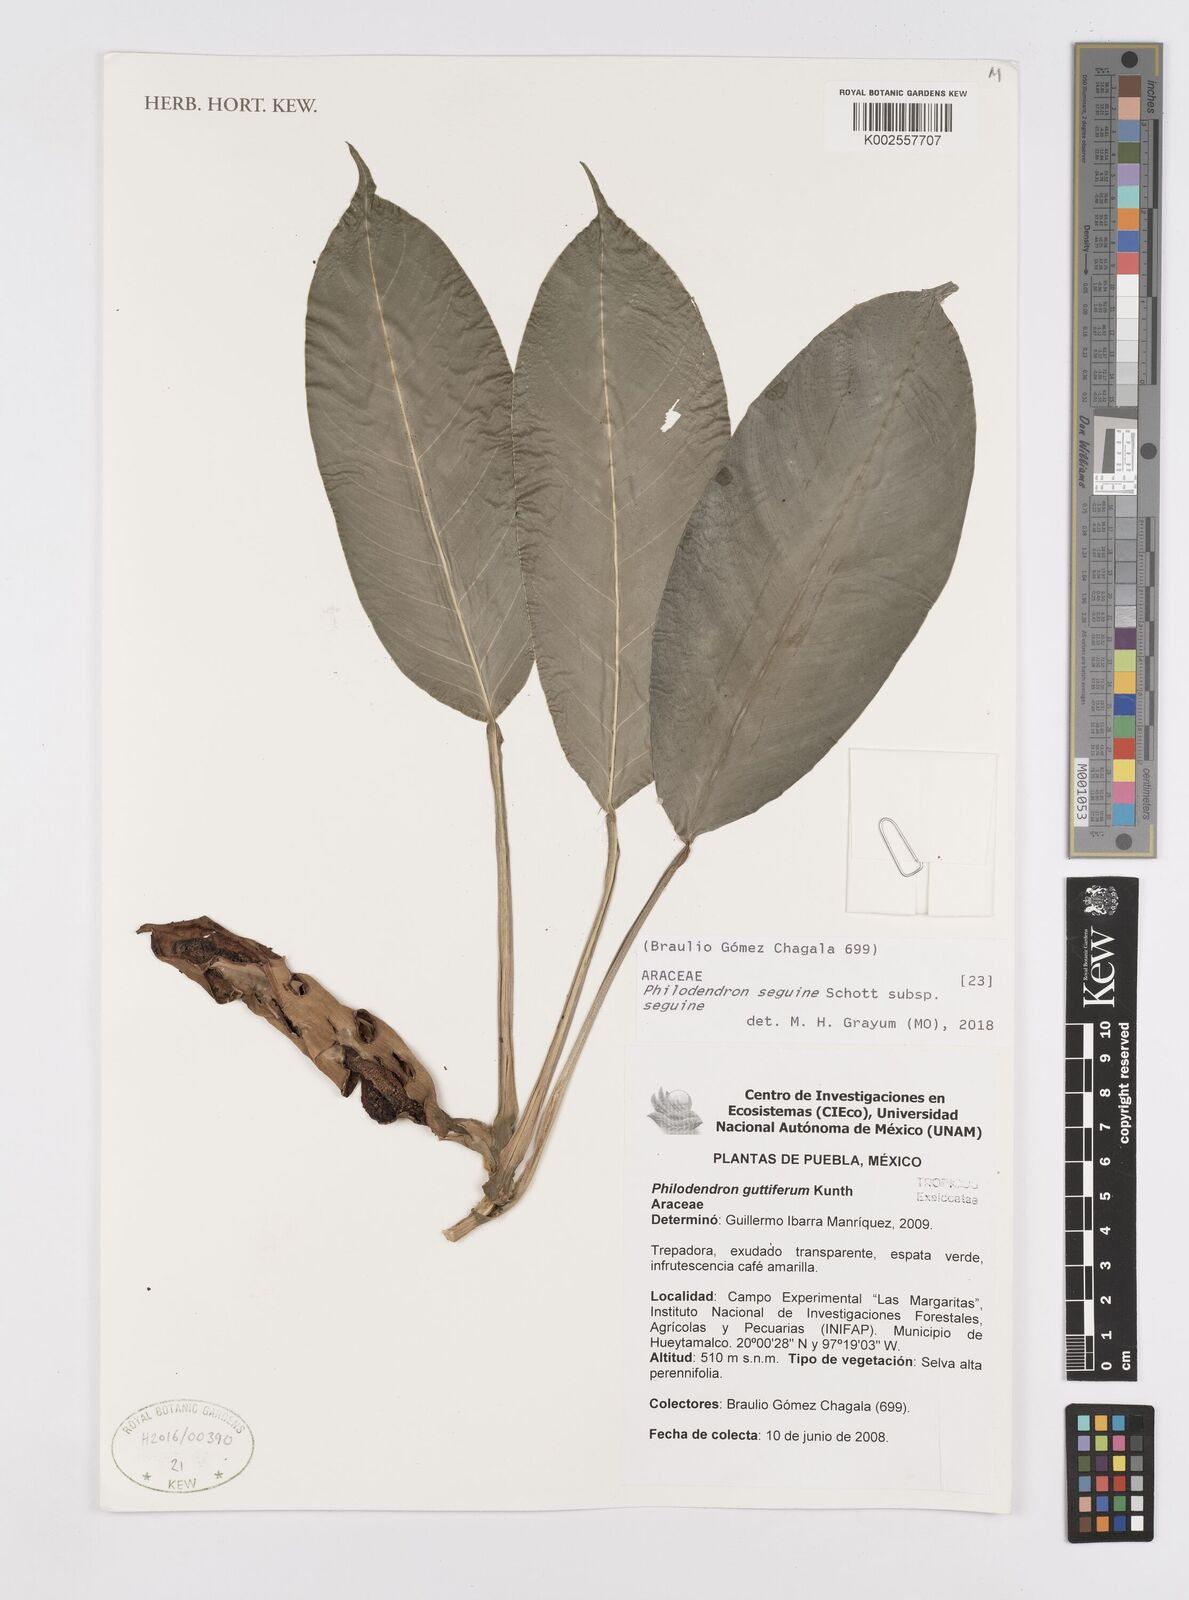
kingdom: Plantae
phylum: Tracheophyta
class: Liliopsida
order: Alismatales
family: Araceae
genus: Philodendron
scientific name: Philodendron seguine
